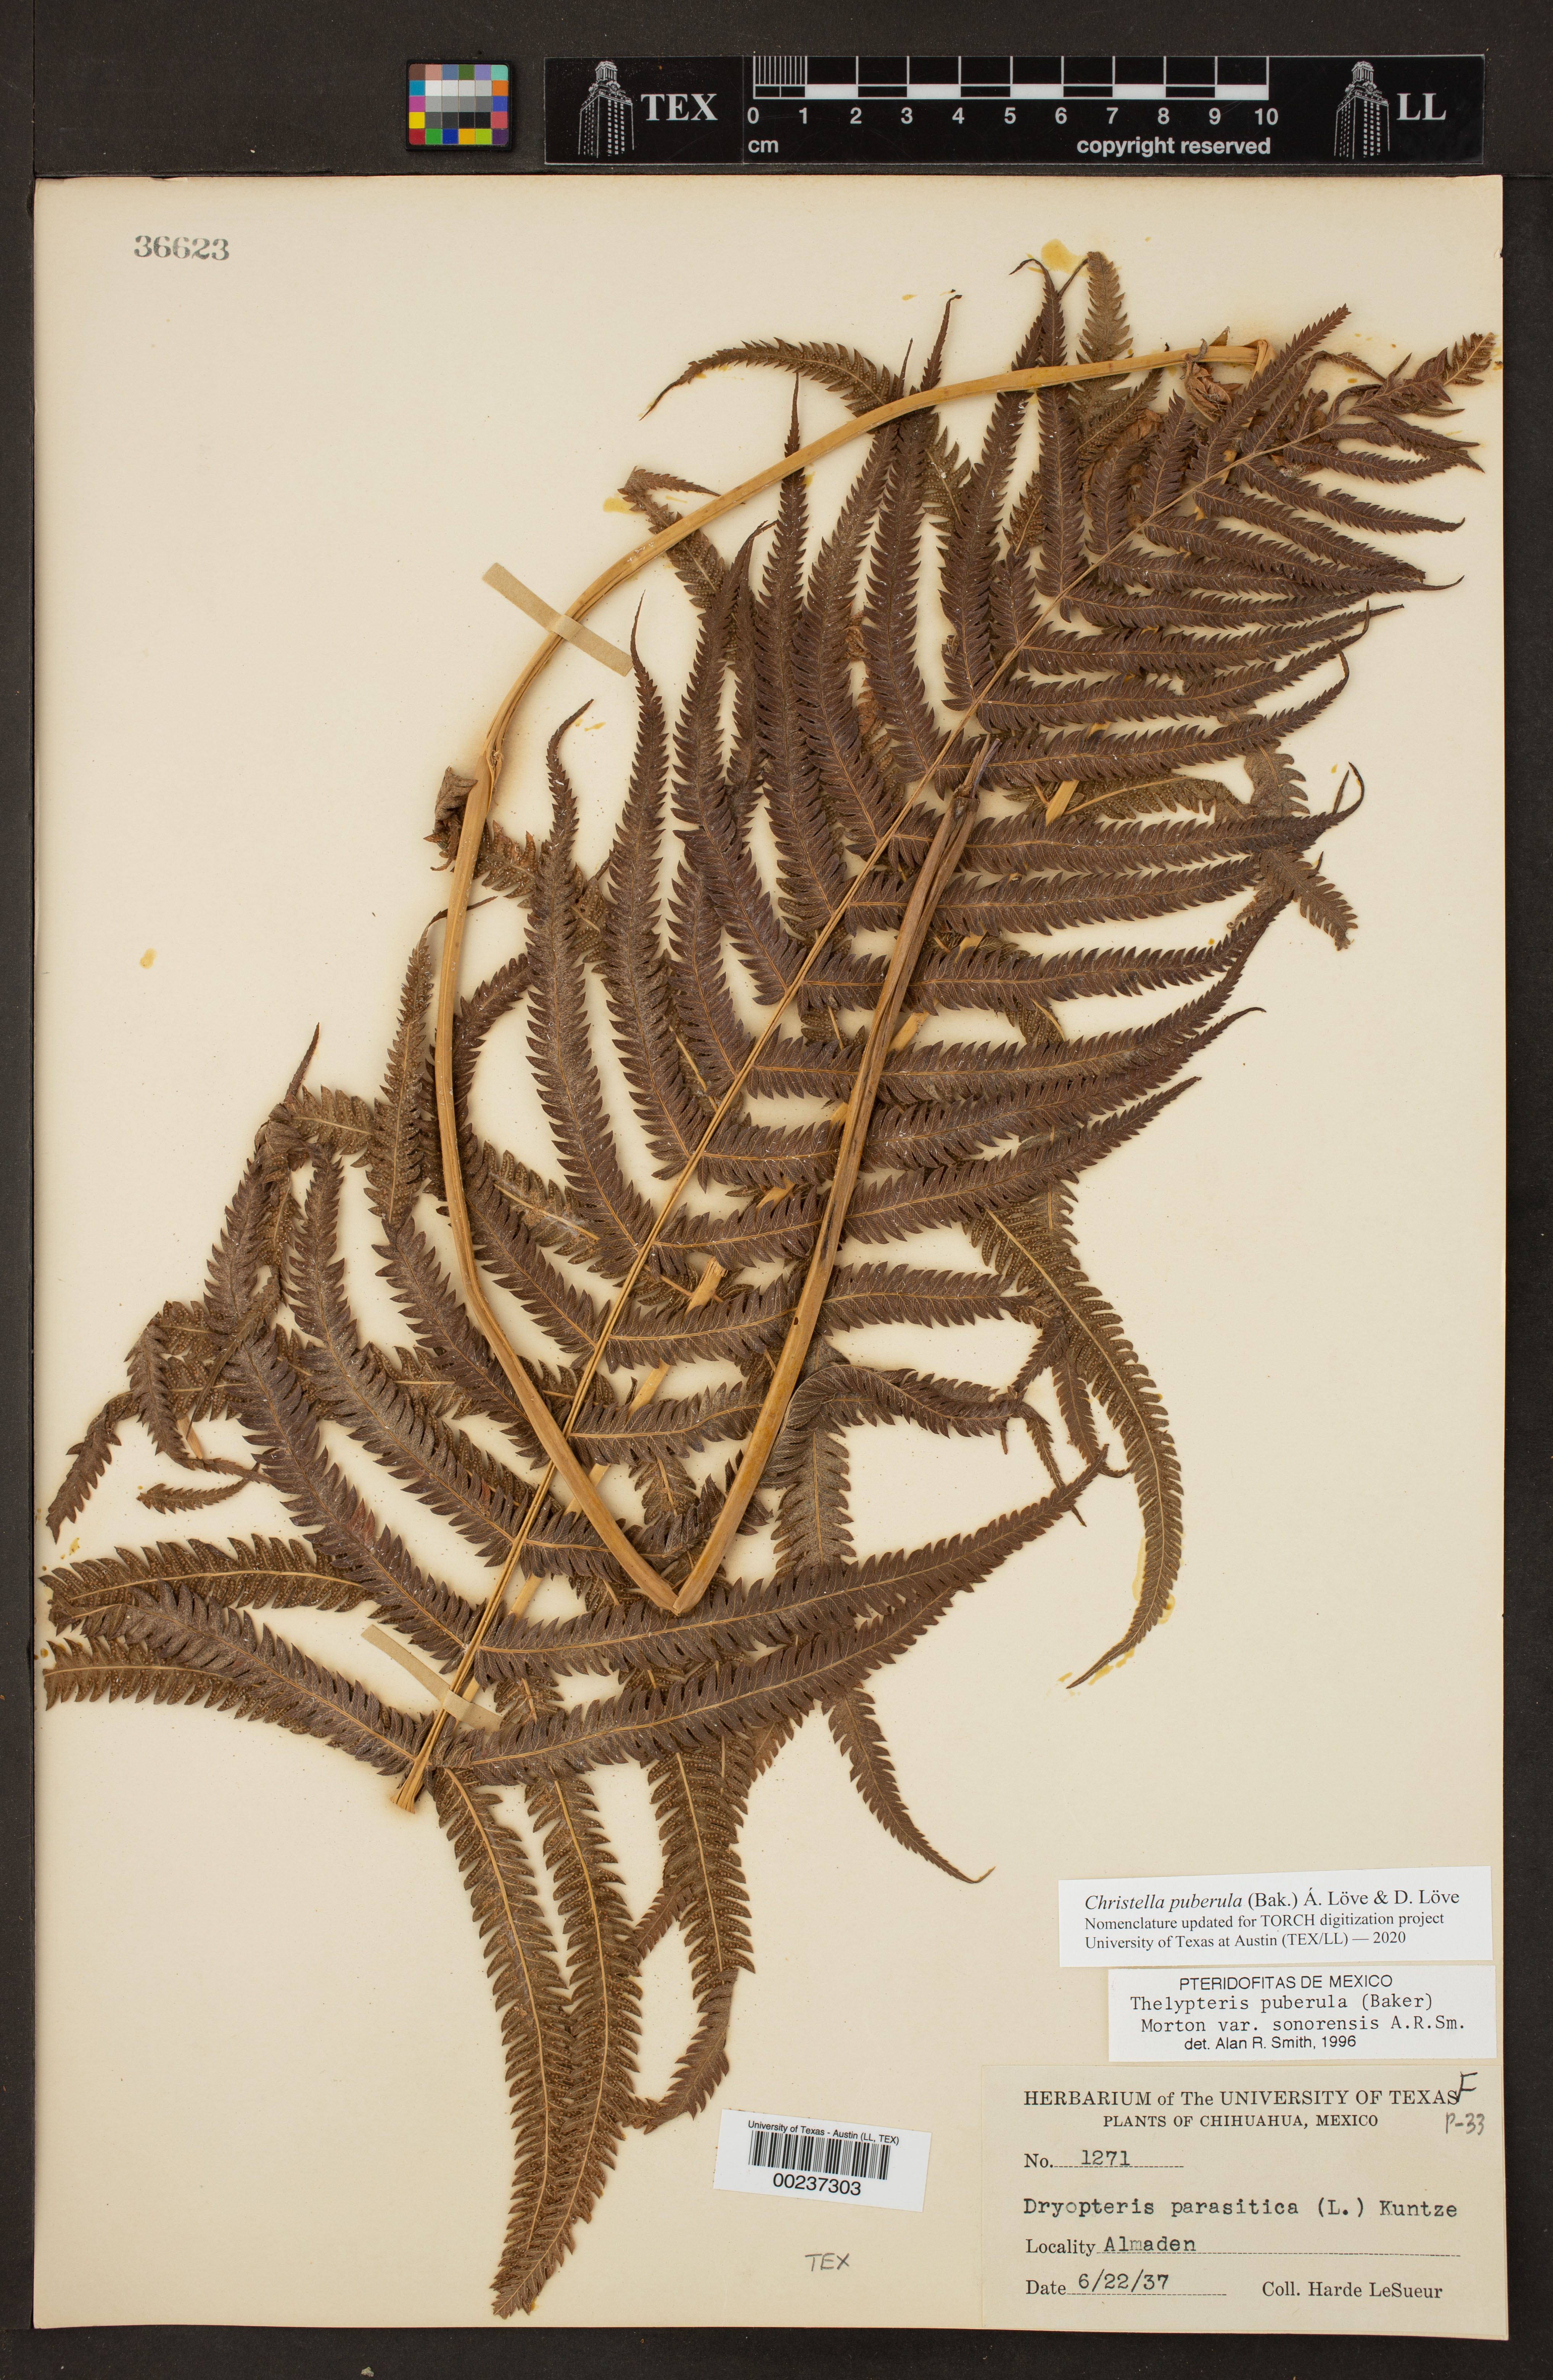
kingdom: Plantae
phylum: Tracheophyta
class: Polypodiopsida
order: Polypodiales
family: Thelypteridaceae
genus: Pelazoneuron
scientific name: Pelazoneuron puberulum
